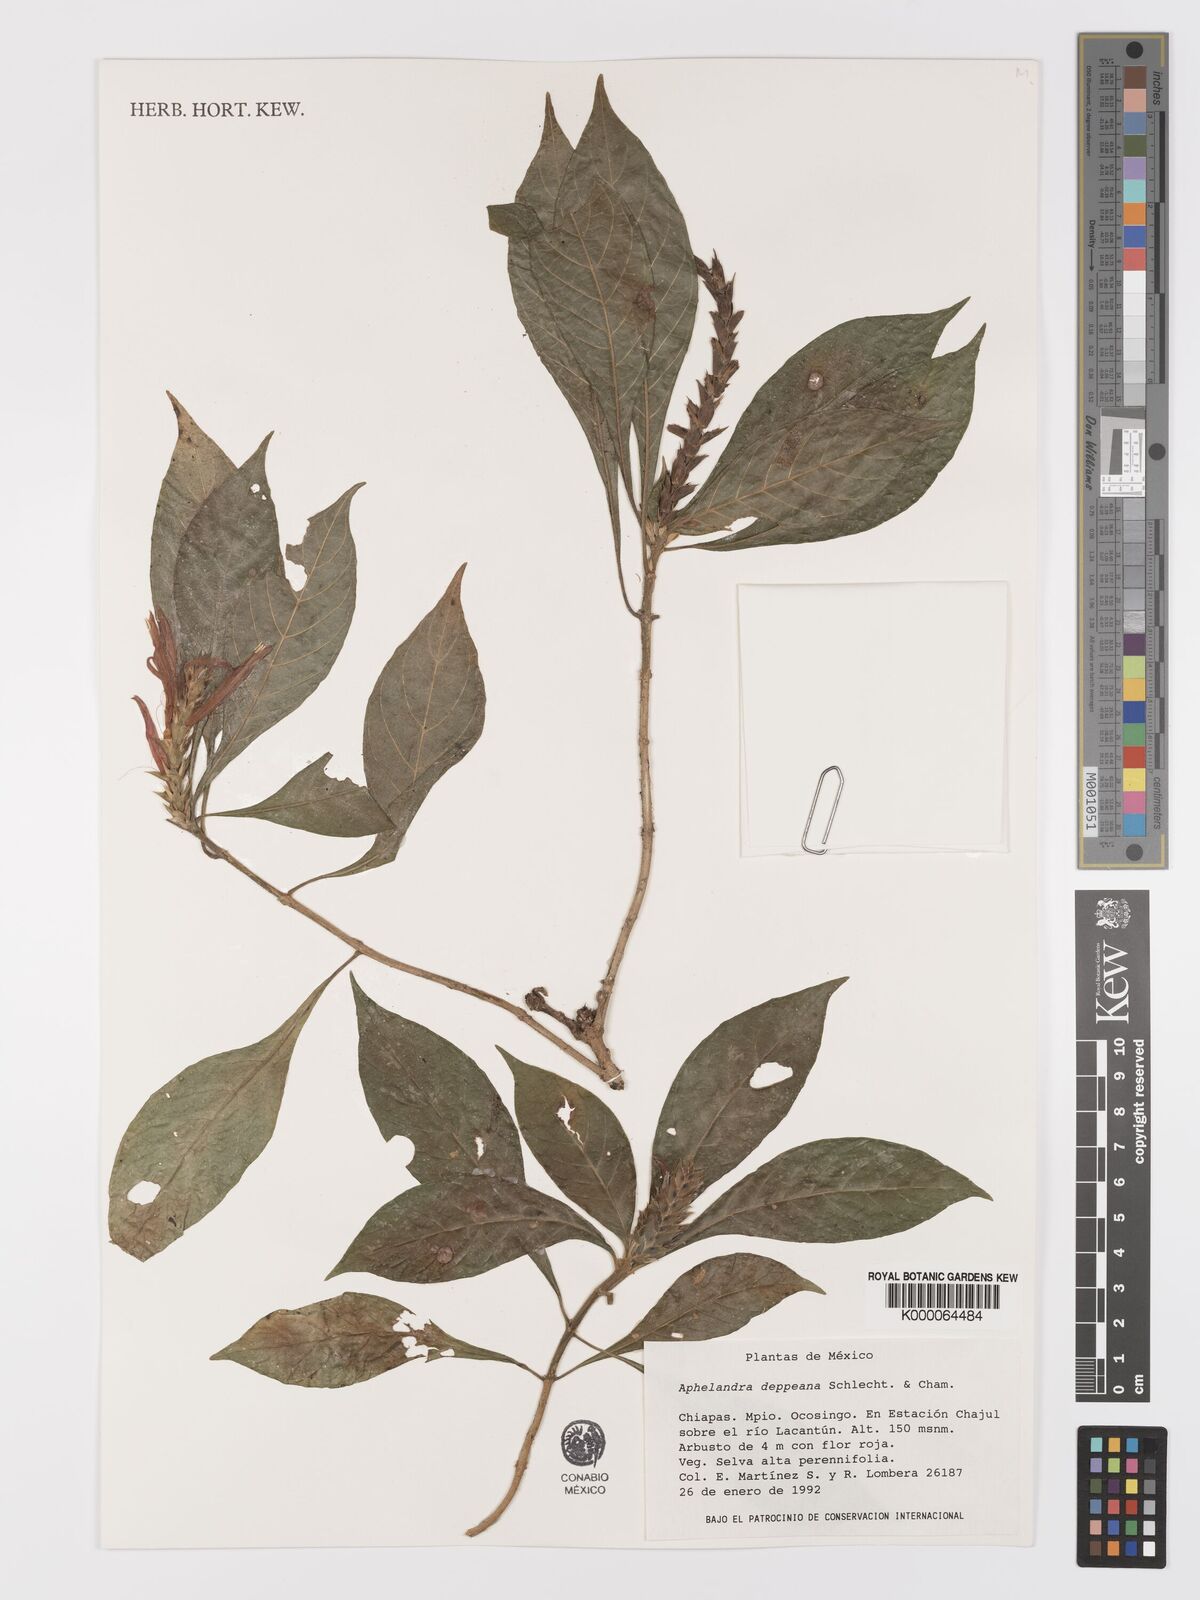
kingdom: Plantae
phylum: Tracheophyta
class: Magnoliopsida
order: Lamiales
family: Acanthaceae
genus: Aphelandra
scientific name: Aphelandra scabra
